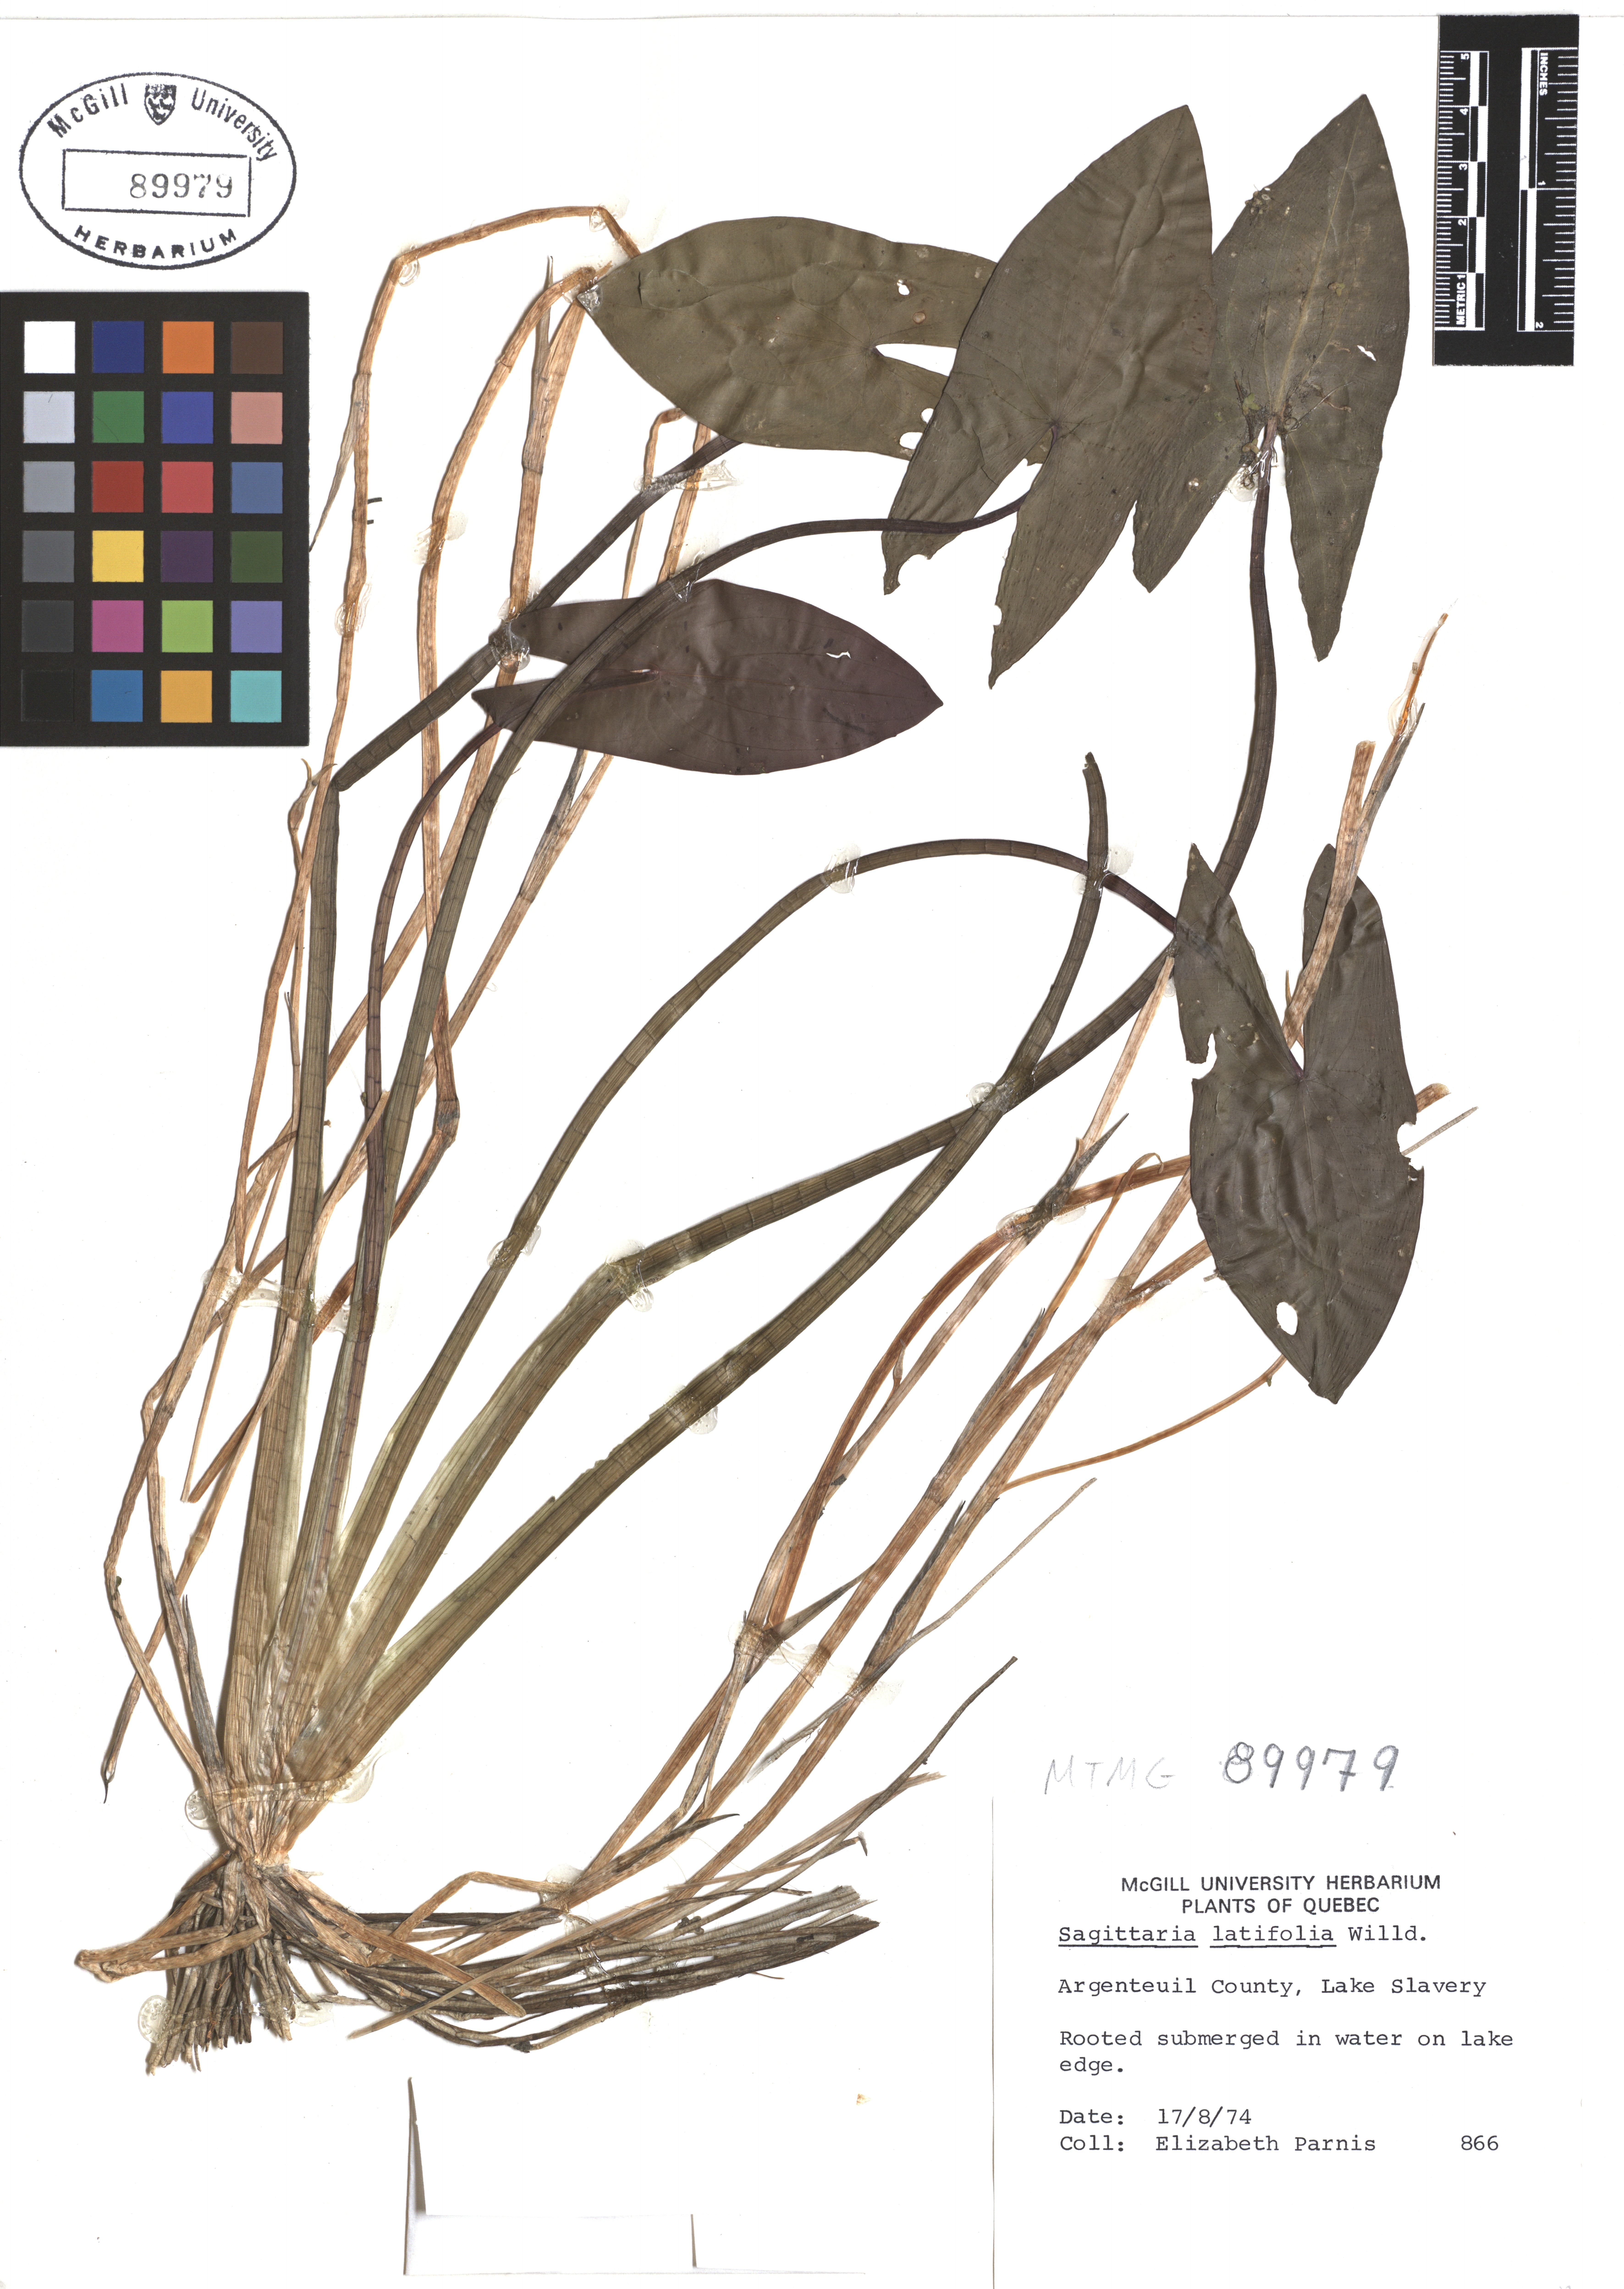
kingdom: Plantae
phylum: Tracheophyta
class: Liliopsida
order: Alismatales
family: Alismataceae
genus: Sagittaria
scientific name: Sagittaria latifolia
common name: Duck-potato
